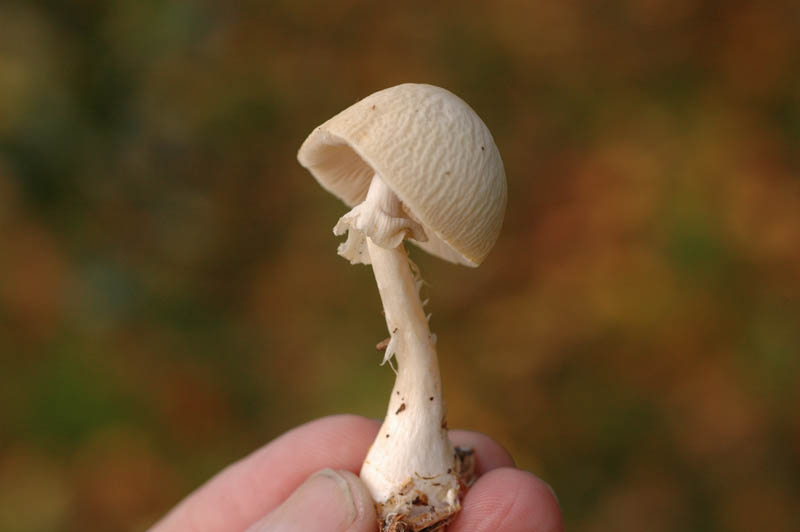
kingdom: Fungi
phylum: Basidiomycota
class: Agaricomycetes
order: Agaricales
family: Strophariaceae
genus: Agrocybe
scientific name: Agrocybe rivulosa
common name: året agerhat
